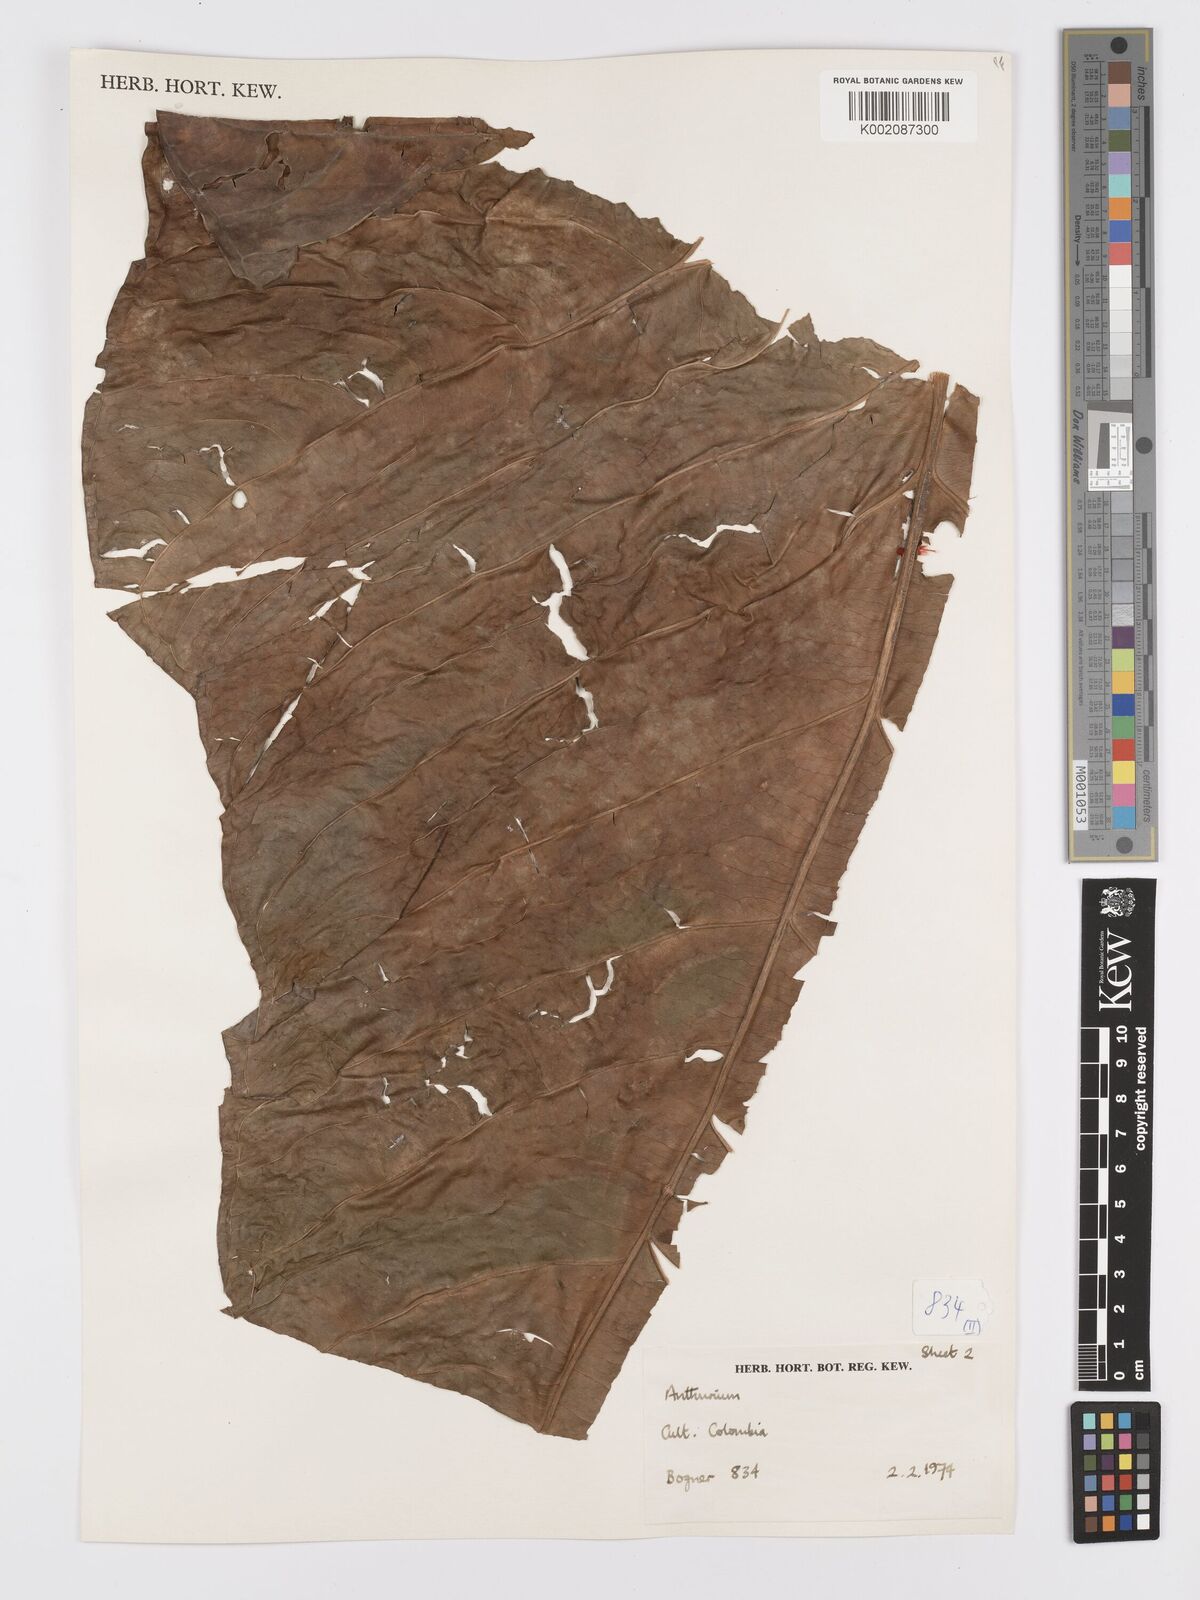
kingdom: Plantae
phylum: Tracheophyta
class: Liliopsida
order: Alismatales
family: Araceae
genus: Anthurium
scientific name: Anthurium
